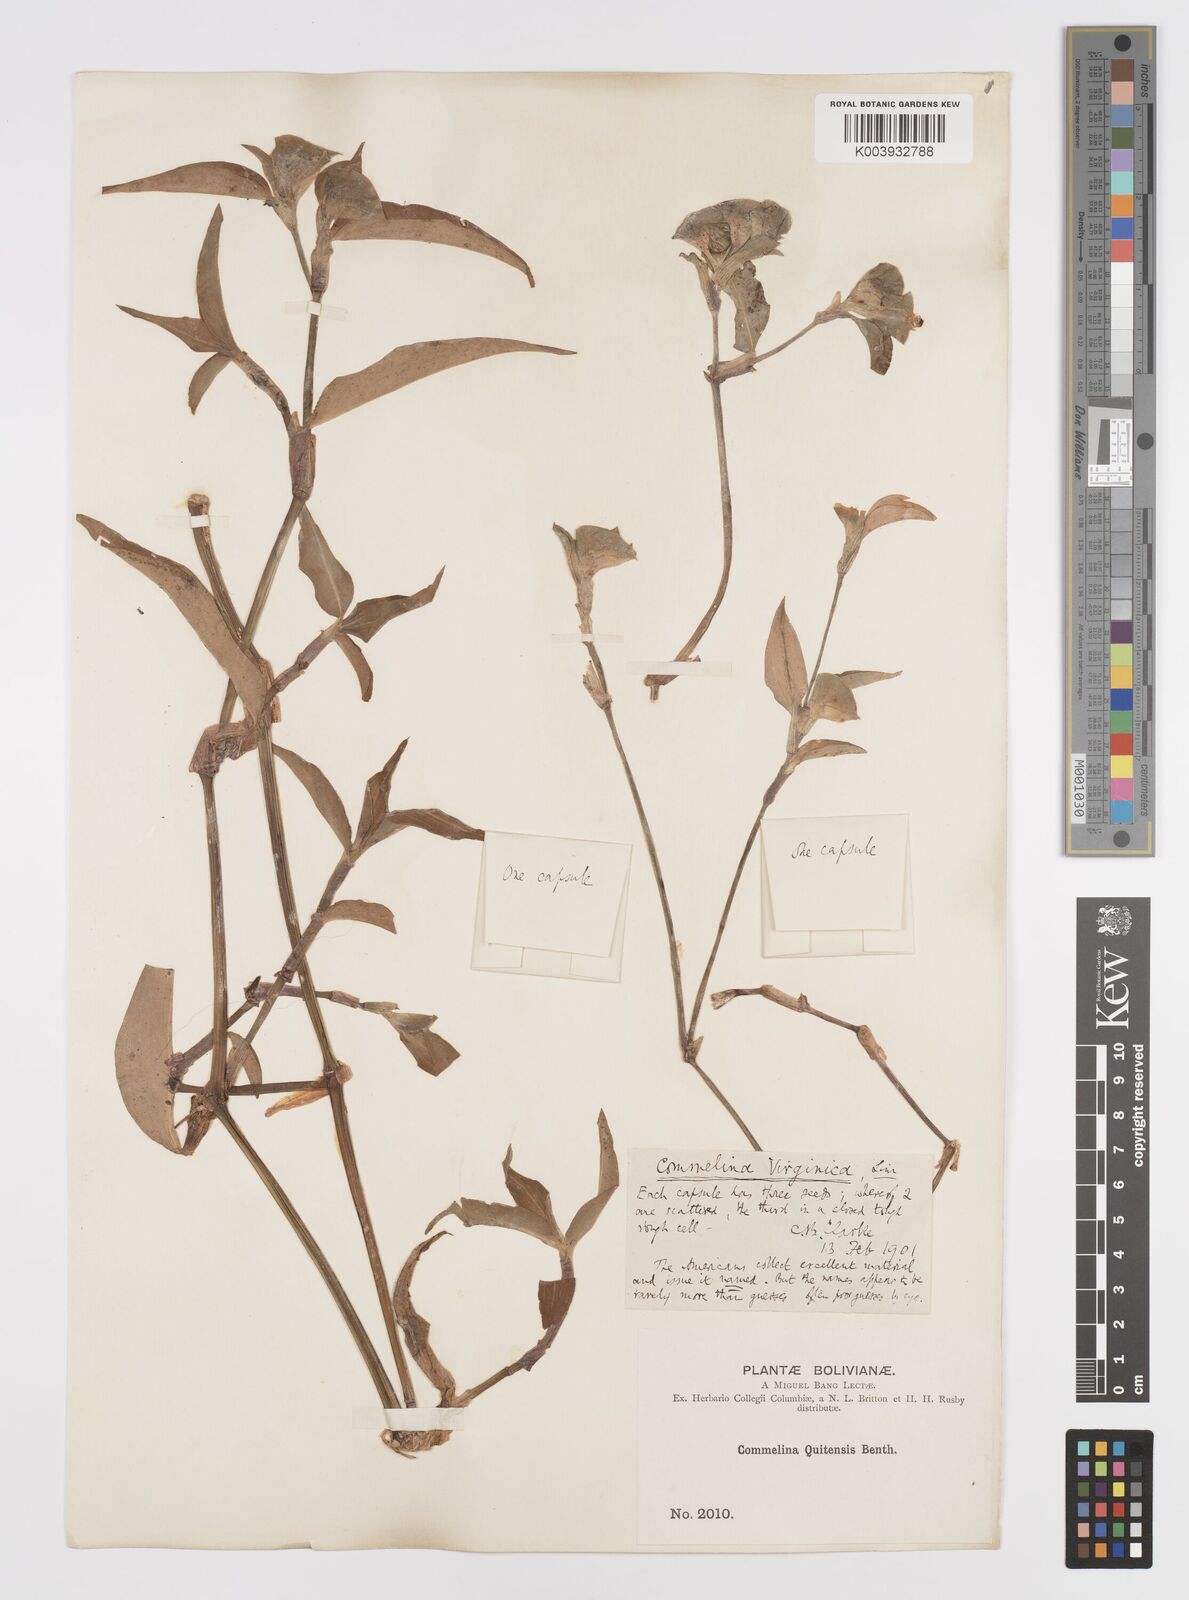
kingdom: Plantae
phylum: Tracheophyta
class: Liliopsida
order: Commelinales
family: Commelinaceae
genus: Commelina
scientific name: Commelina virginica
